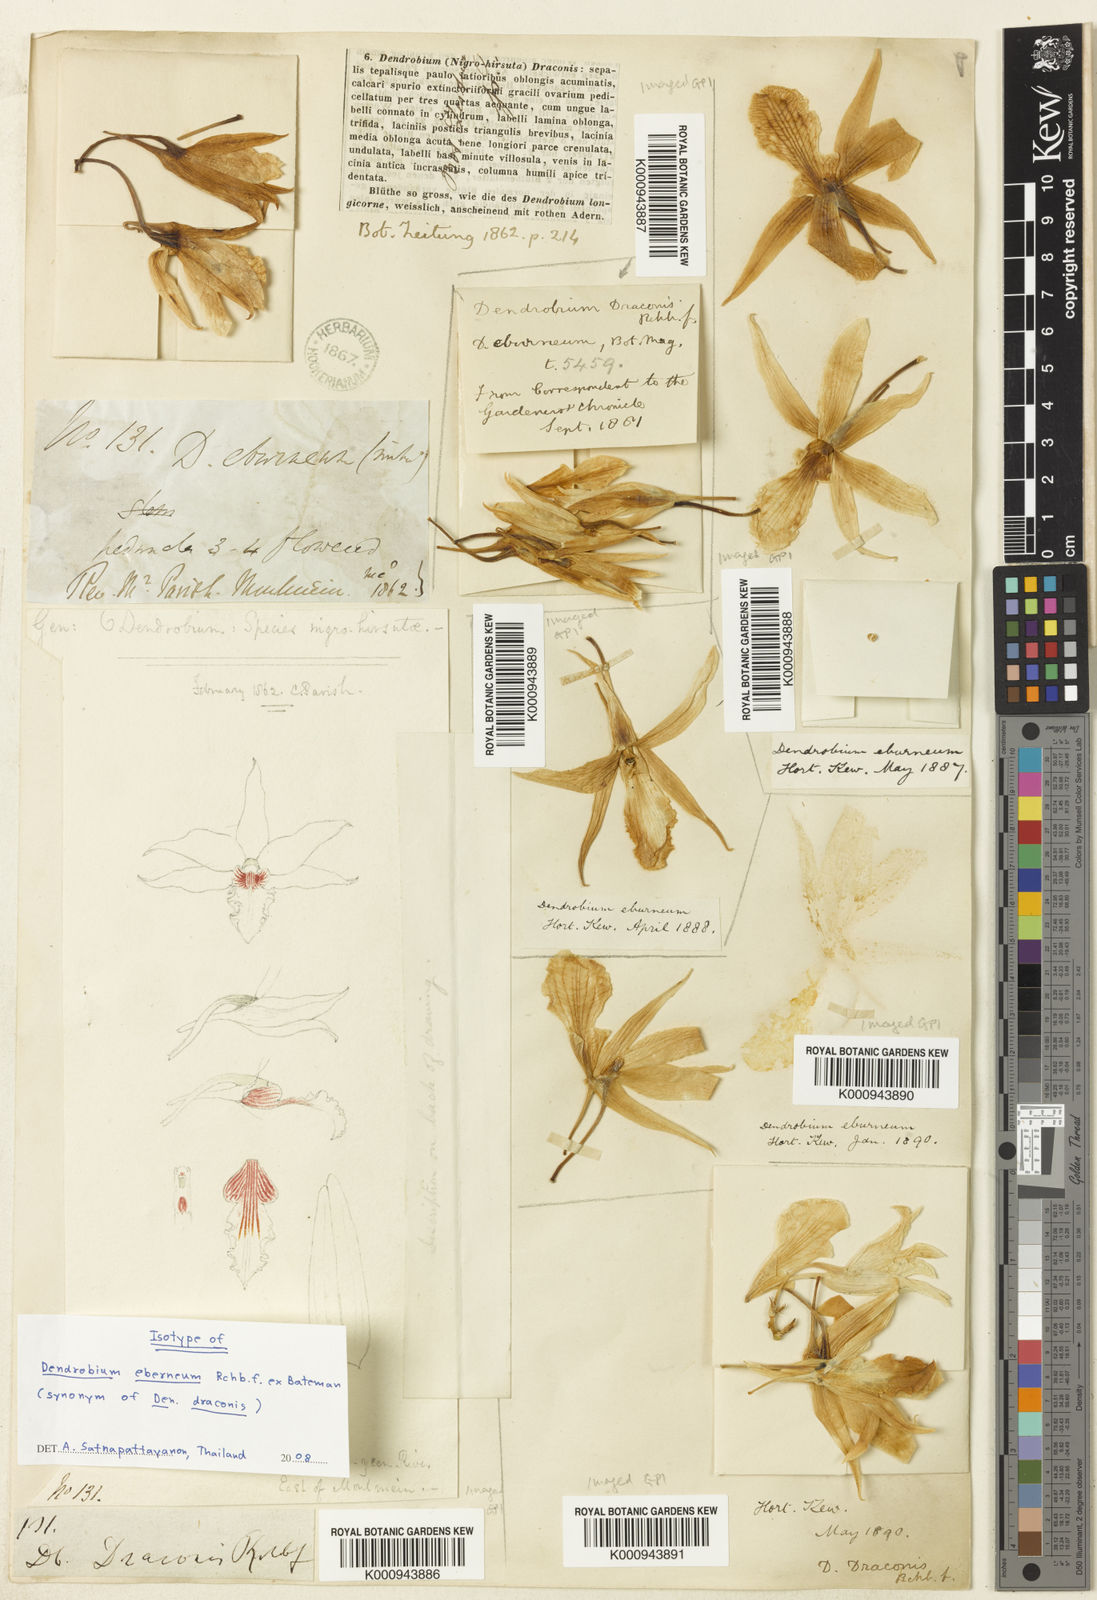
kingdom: Plantae
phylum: Tracheophyta
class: Liliopsida
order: Asparagales
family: Orchidaceae
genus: Dendrobium
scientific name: Dendrobium draconis
